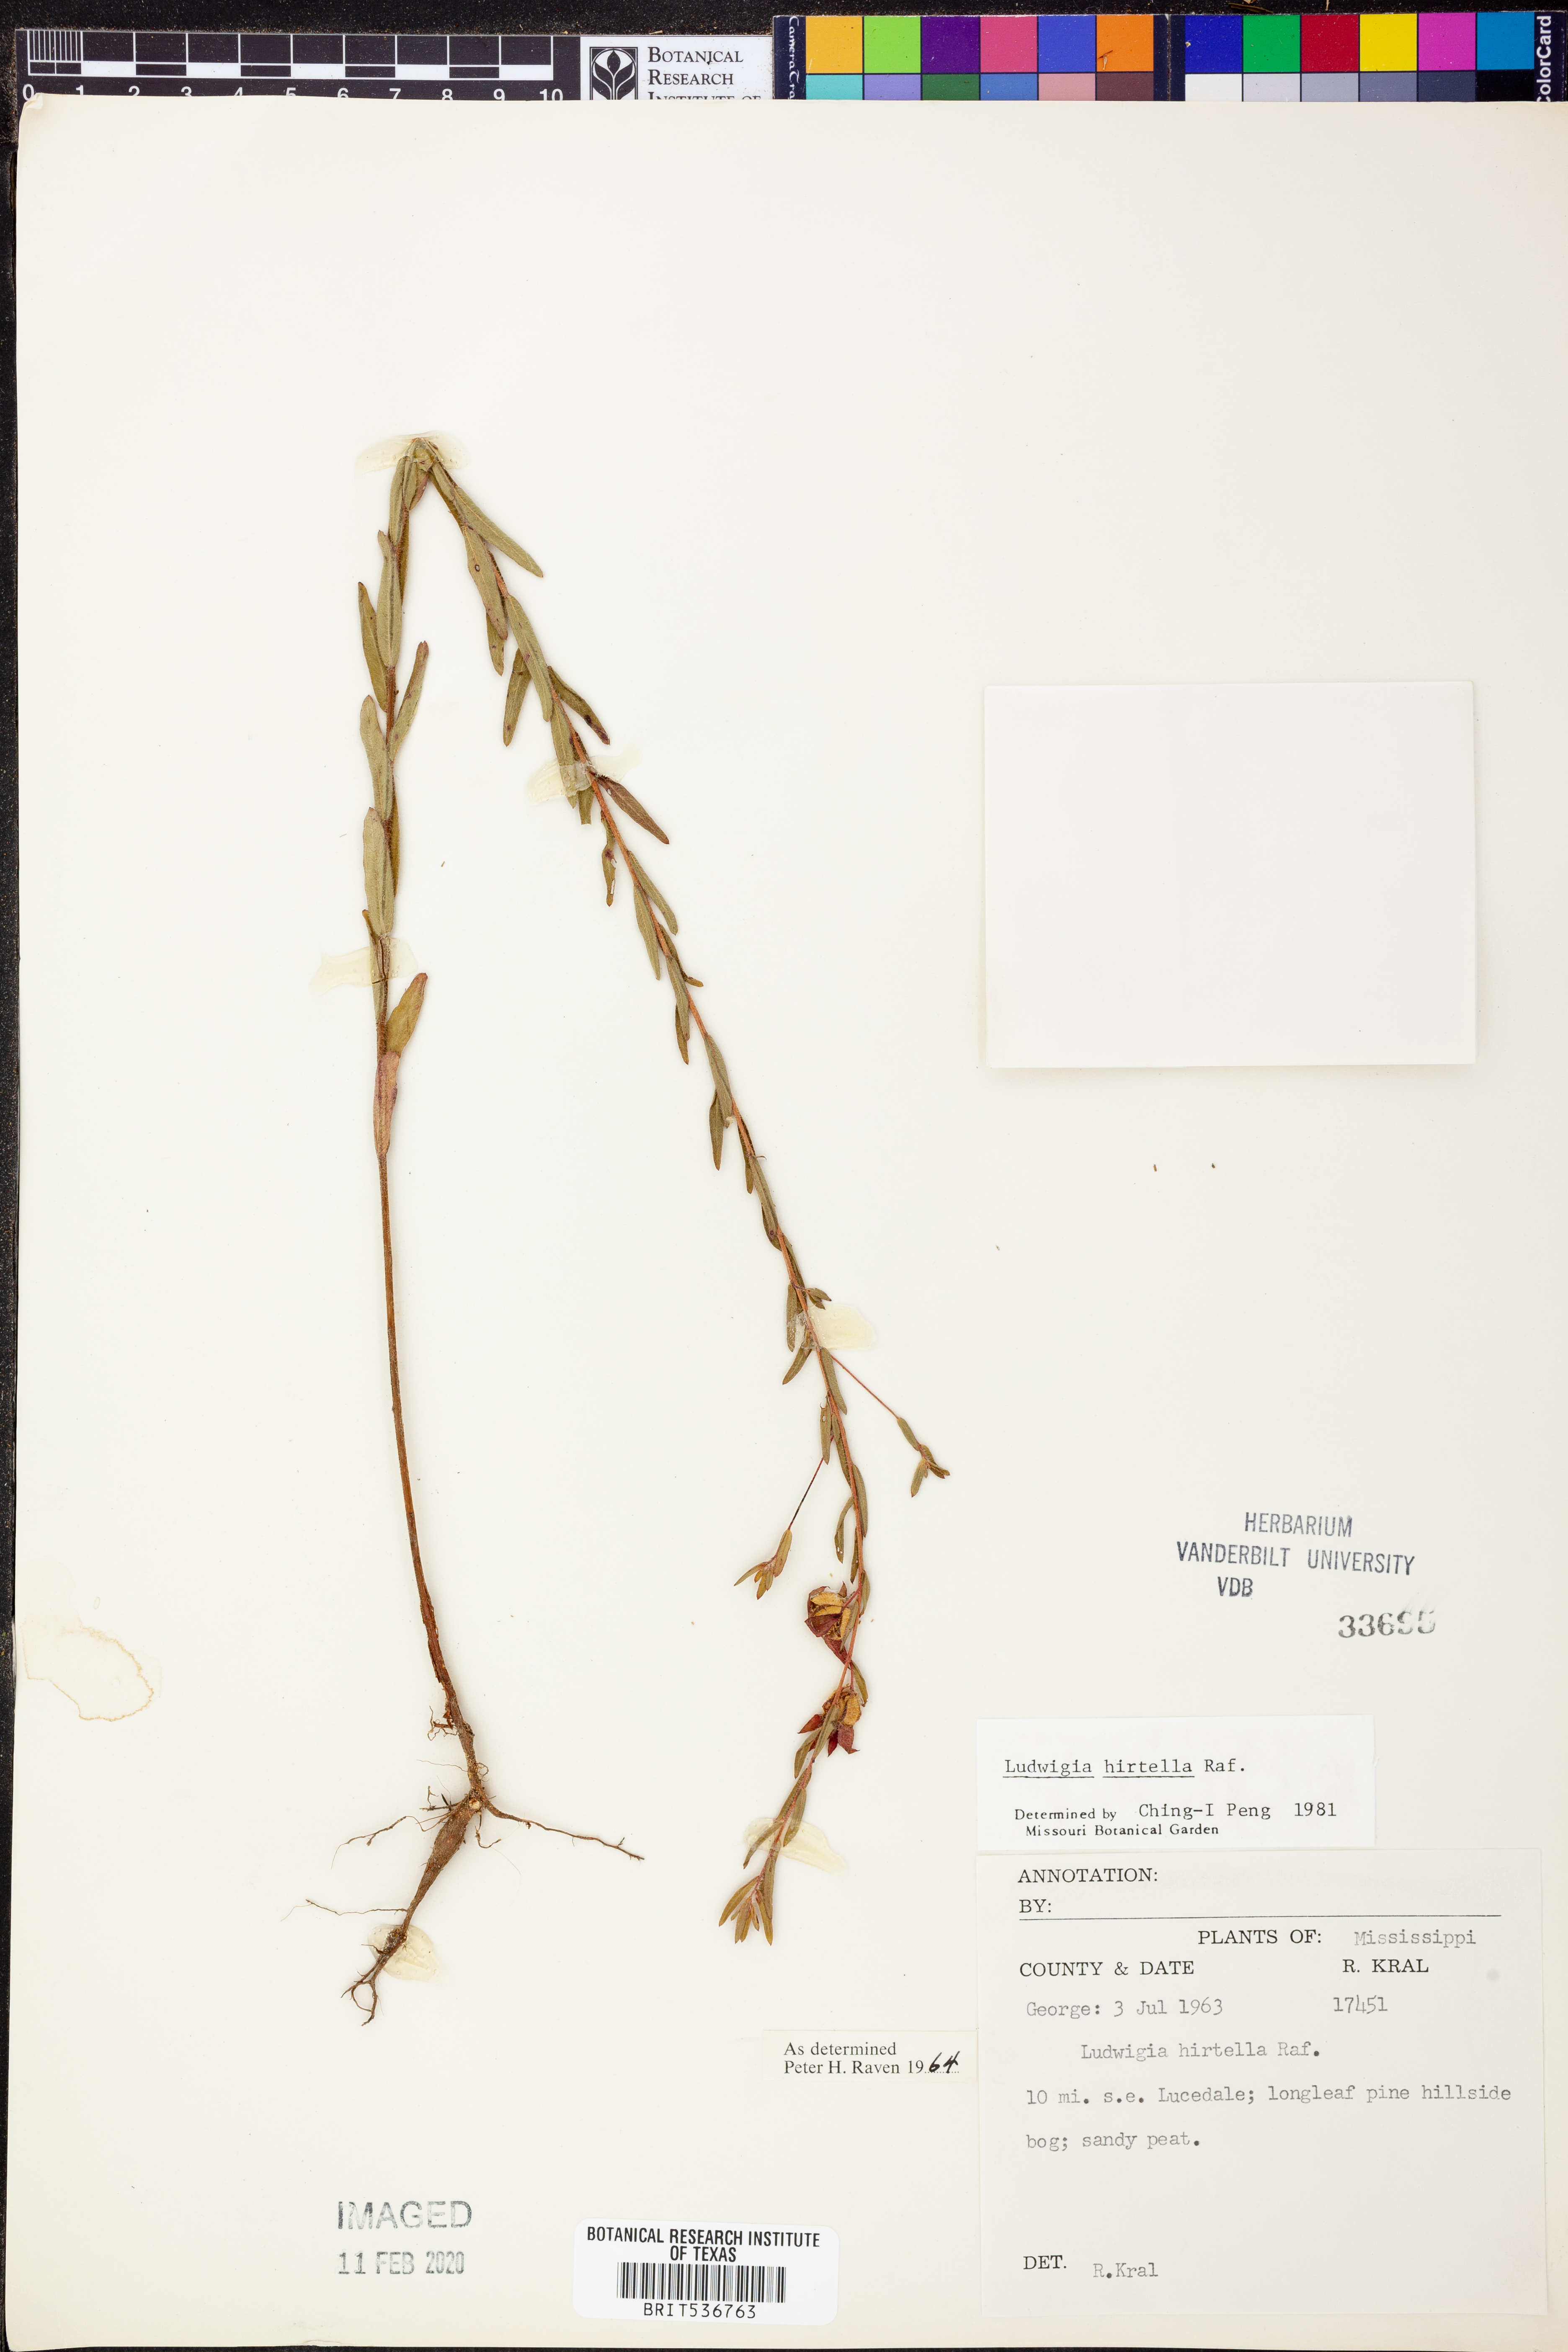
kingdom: Plantae
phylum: Tracheophyta
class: Magnoliopsida
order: Myrtales
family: Onagraceae
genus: Ludwigia
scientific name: Ludwigia hirtella
